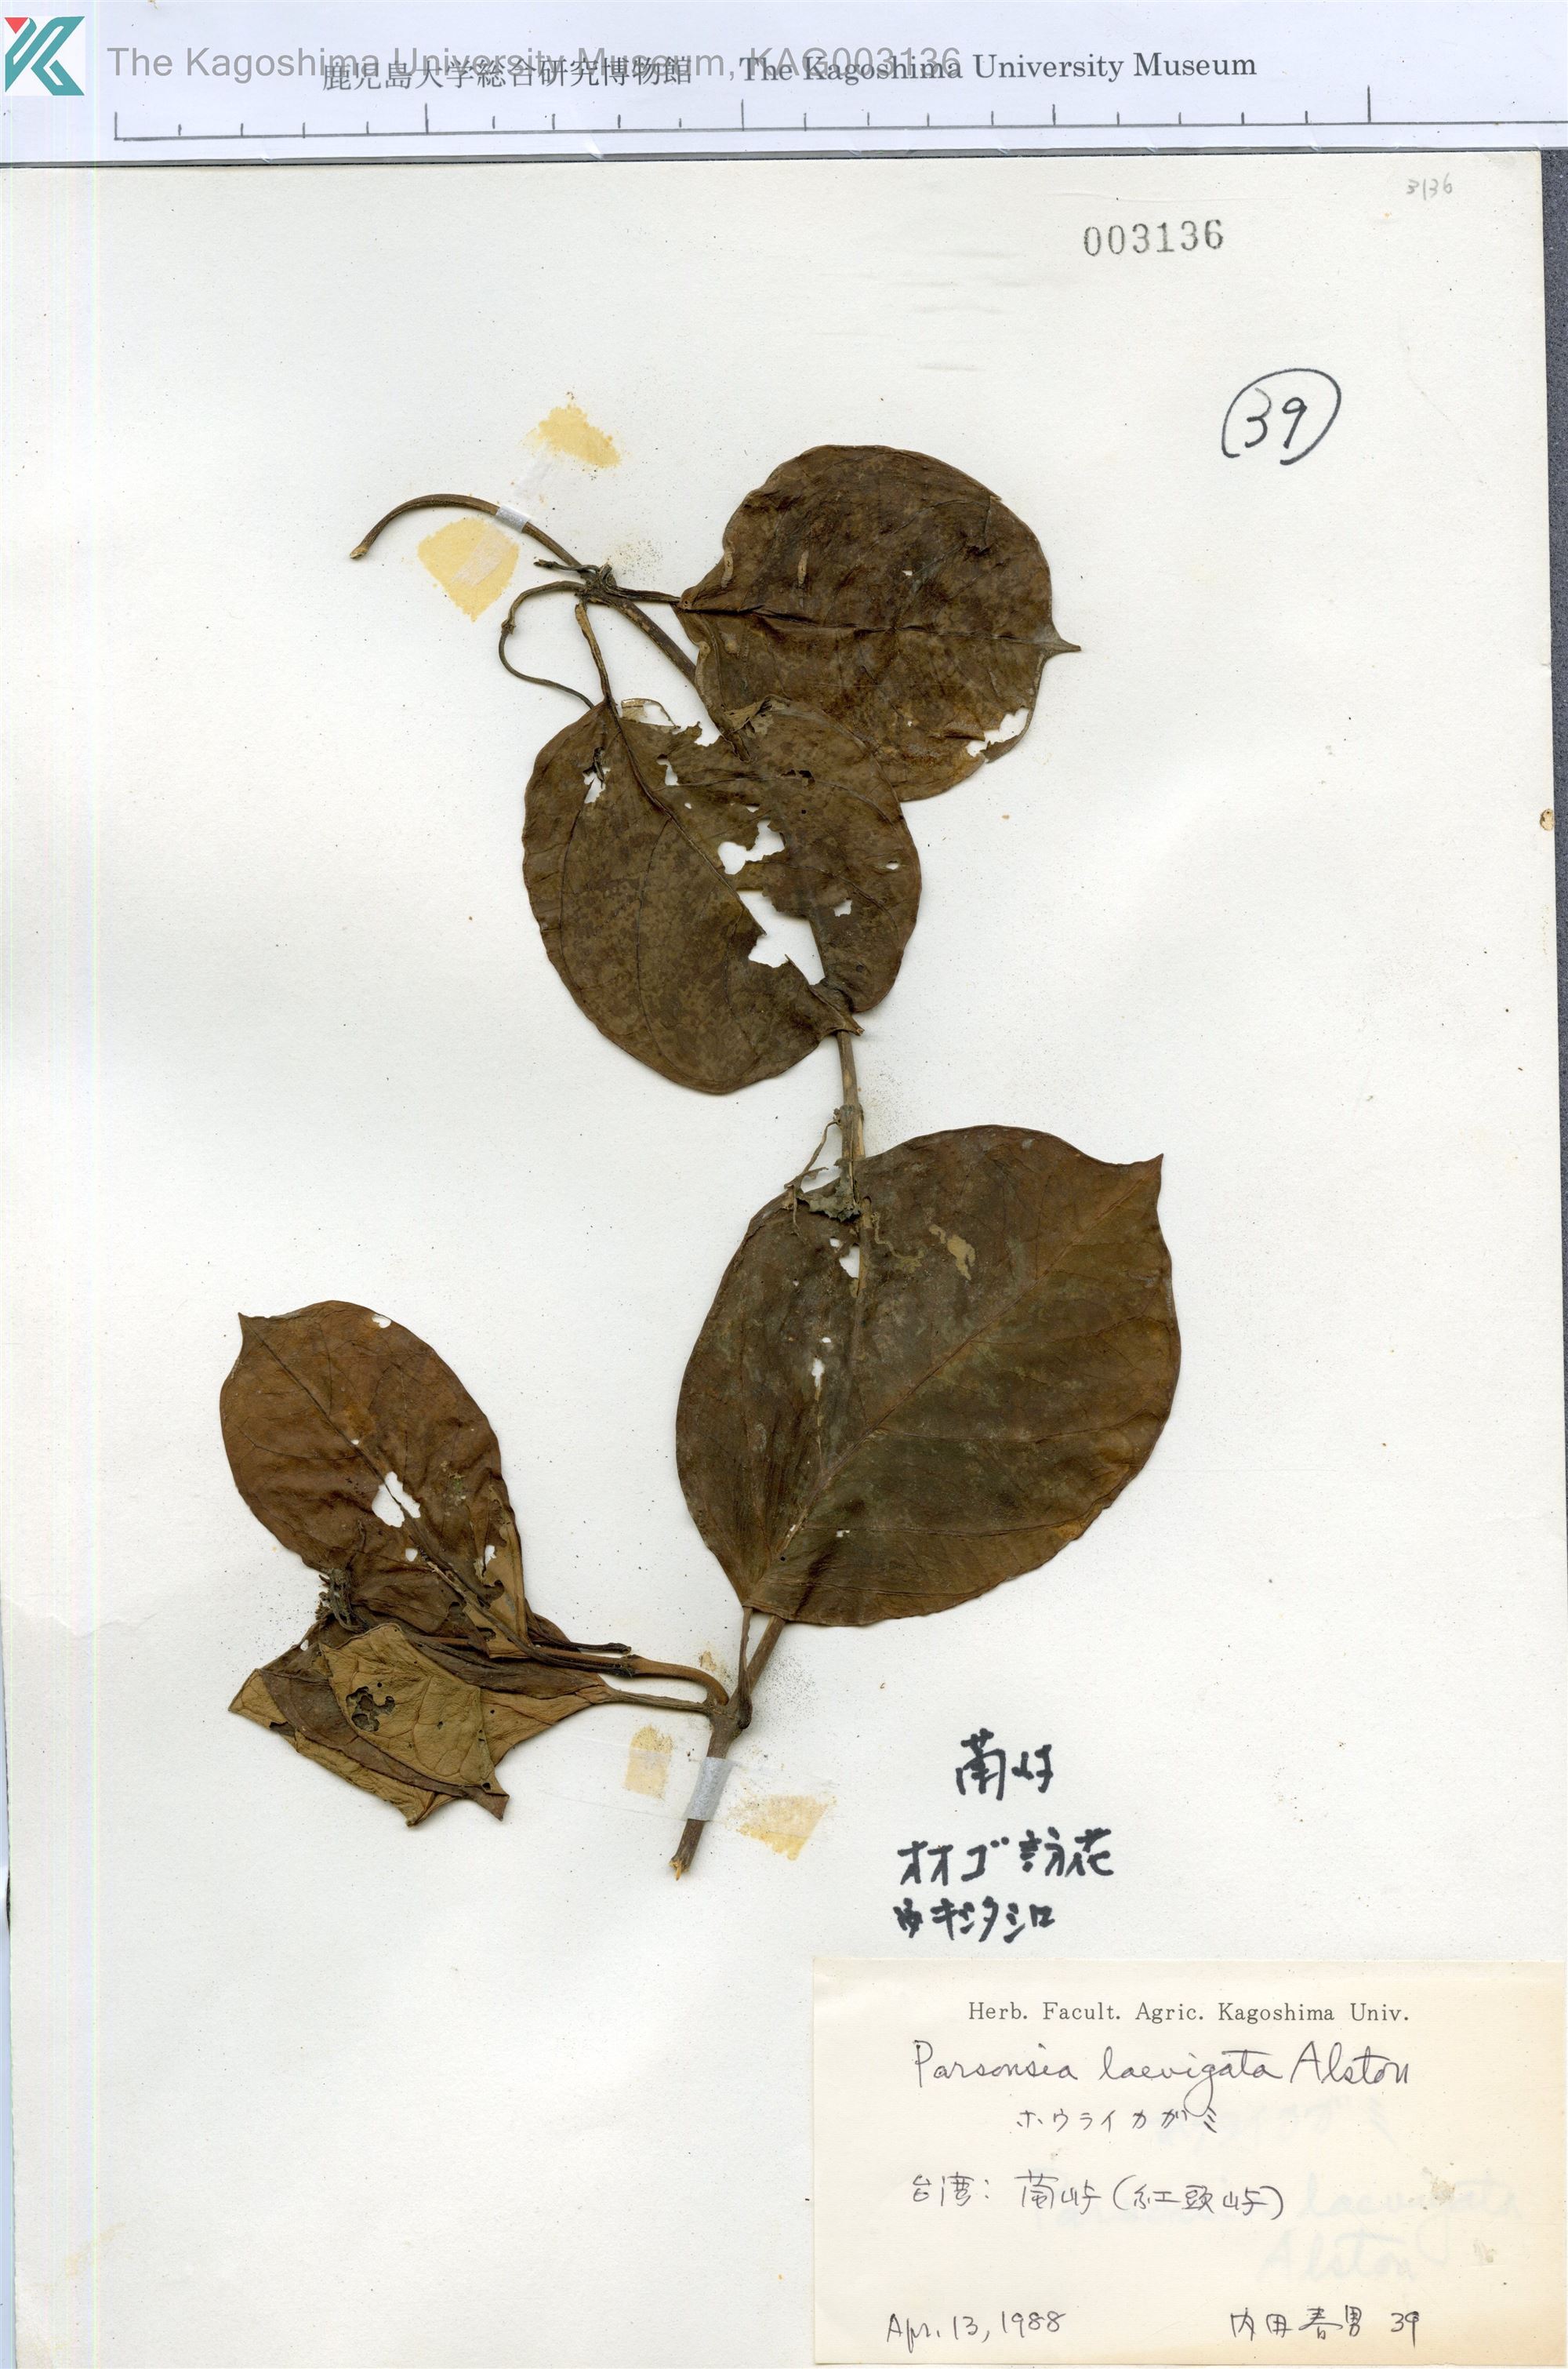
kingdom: Plantae
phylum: Tracheophyta
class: Magnoliopsida
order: Gentianales
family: Apocynaceae
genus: Parsonsia
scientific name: Parsonsia alboflavescens
